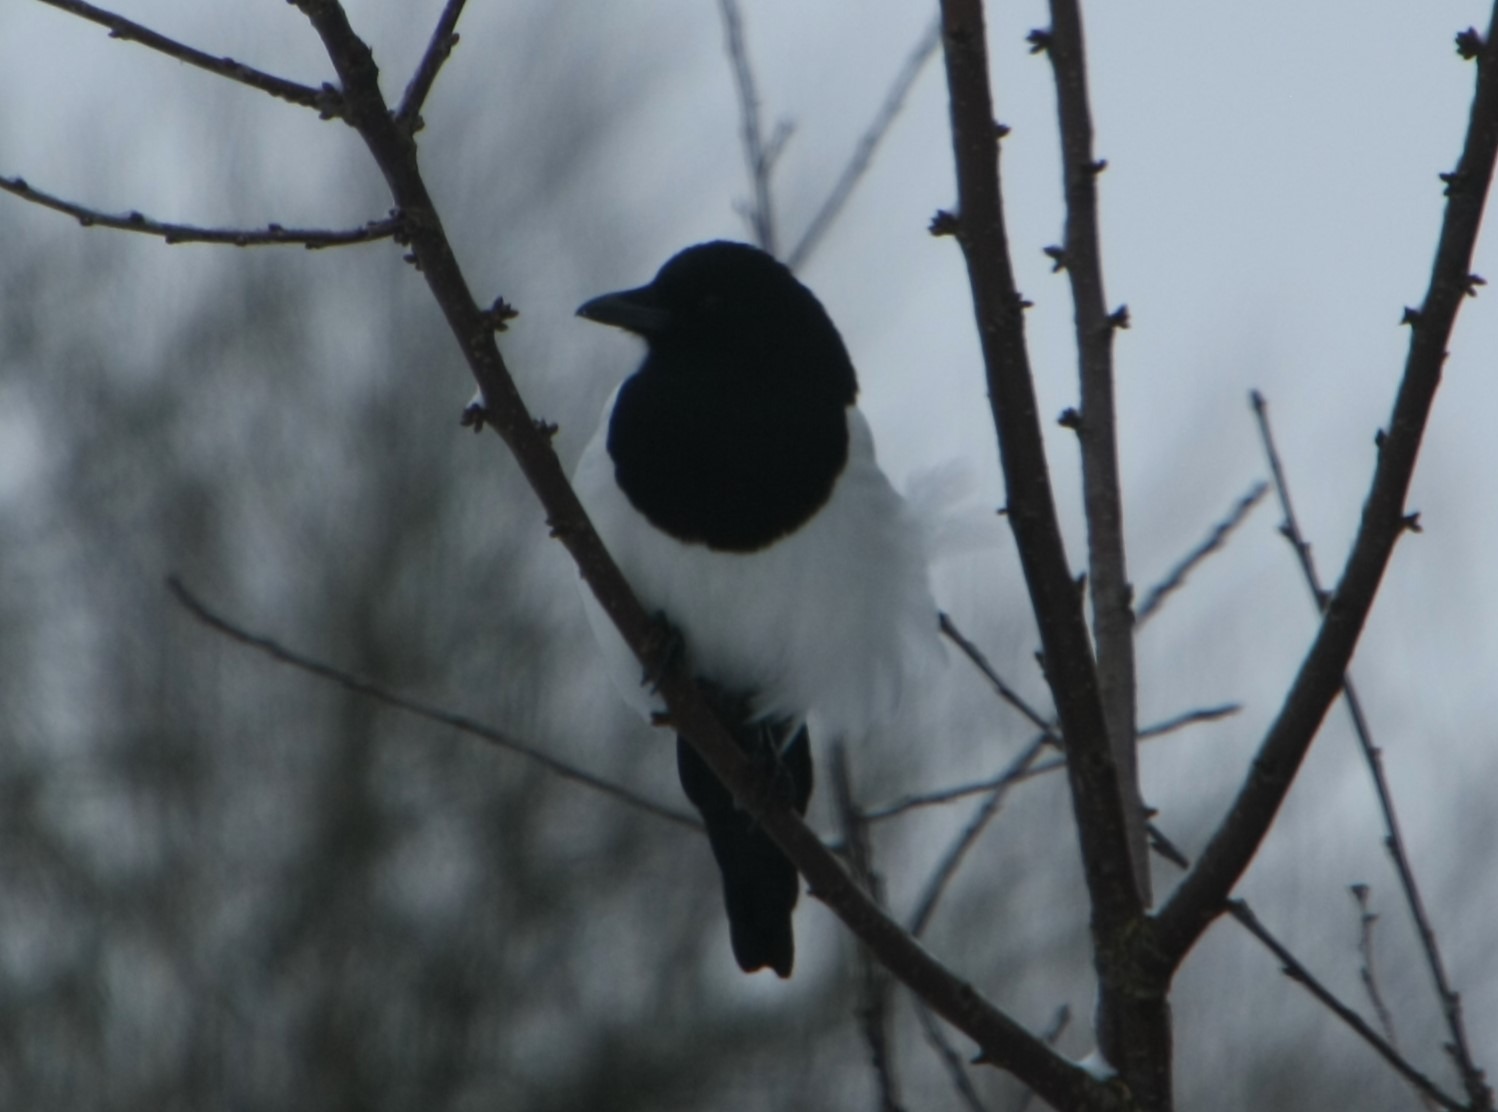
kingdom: Animalia
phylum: Chordata
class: Aves
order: Passeriformes
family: Corvidae
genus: Pica
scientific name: Pica pica
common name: Husskade
